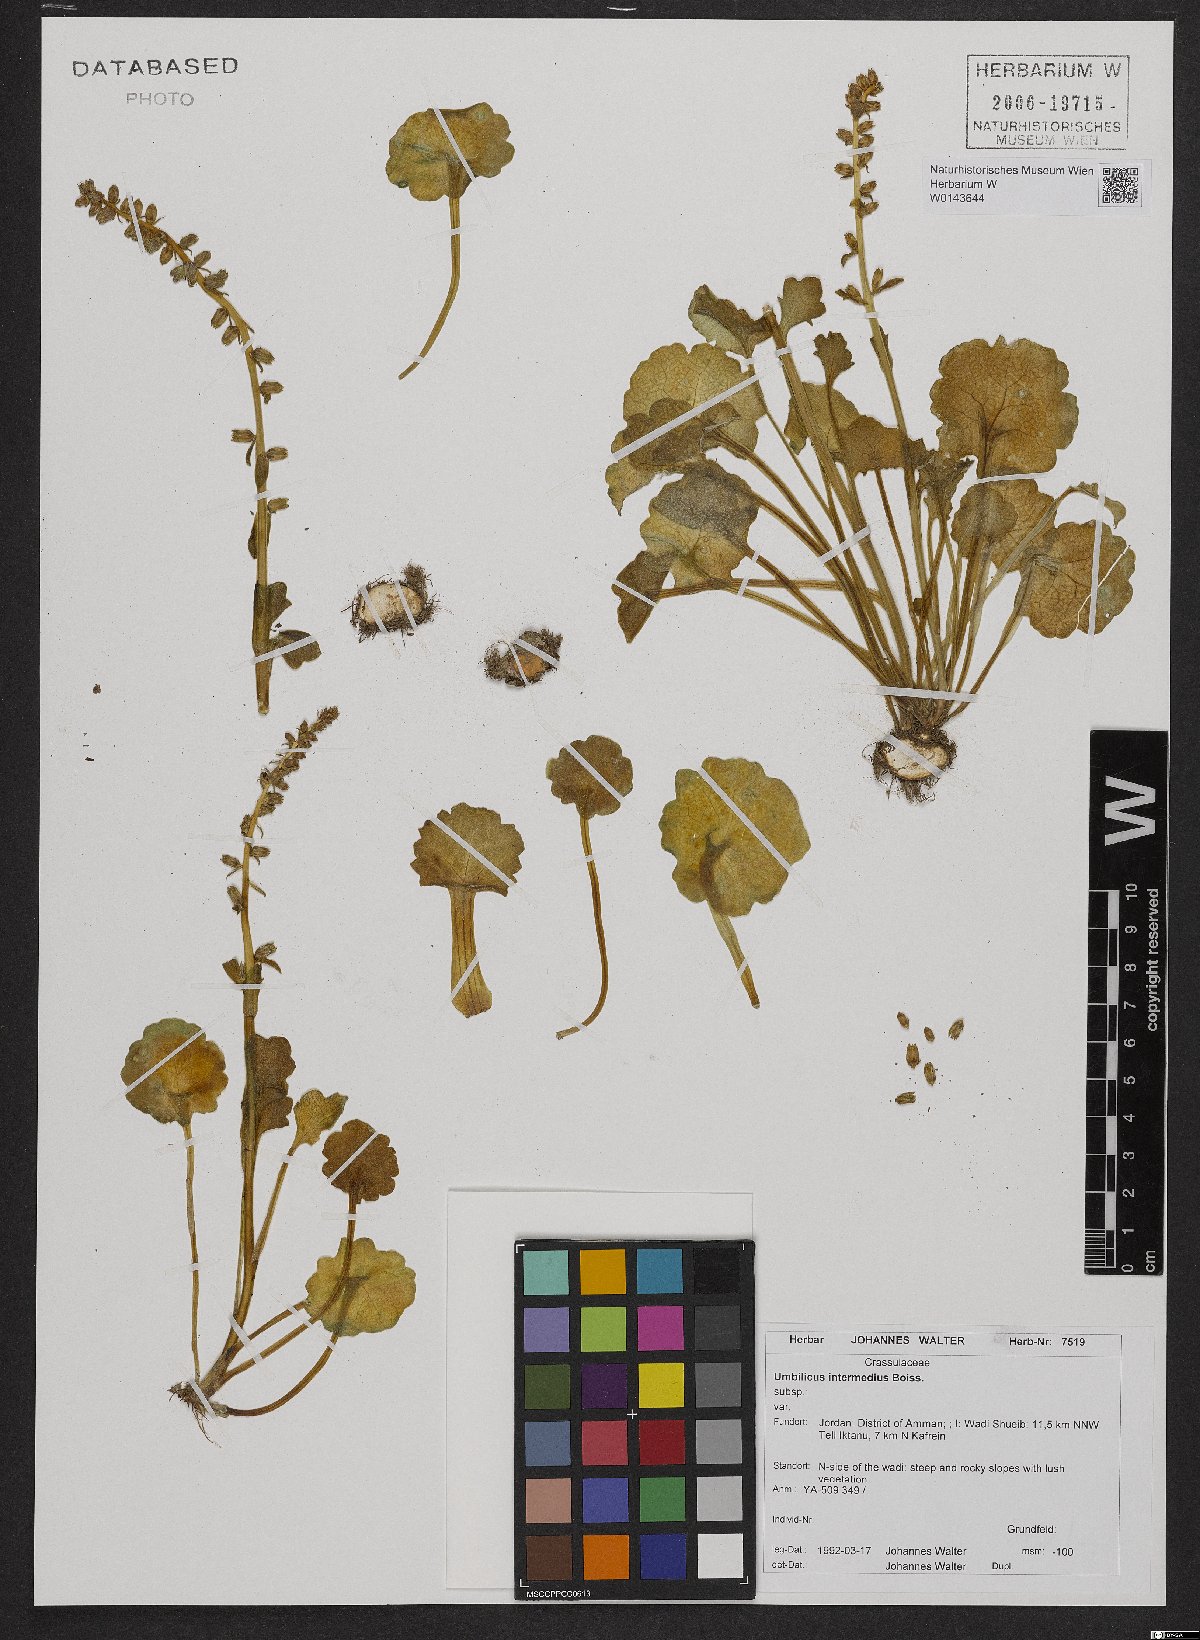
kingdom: Plantae
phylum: Tracheophyta
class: Magnoliopsida
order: Saxifragales
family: Crassulaceae
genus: Umbilicus
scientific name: Umbilicus horizontalis
